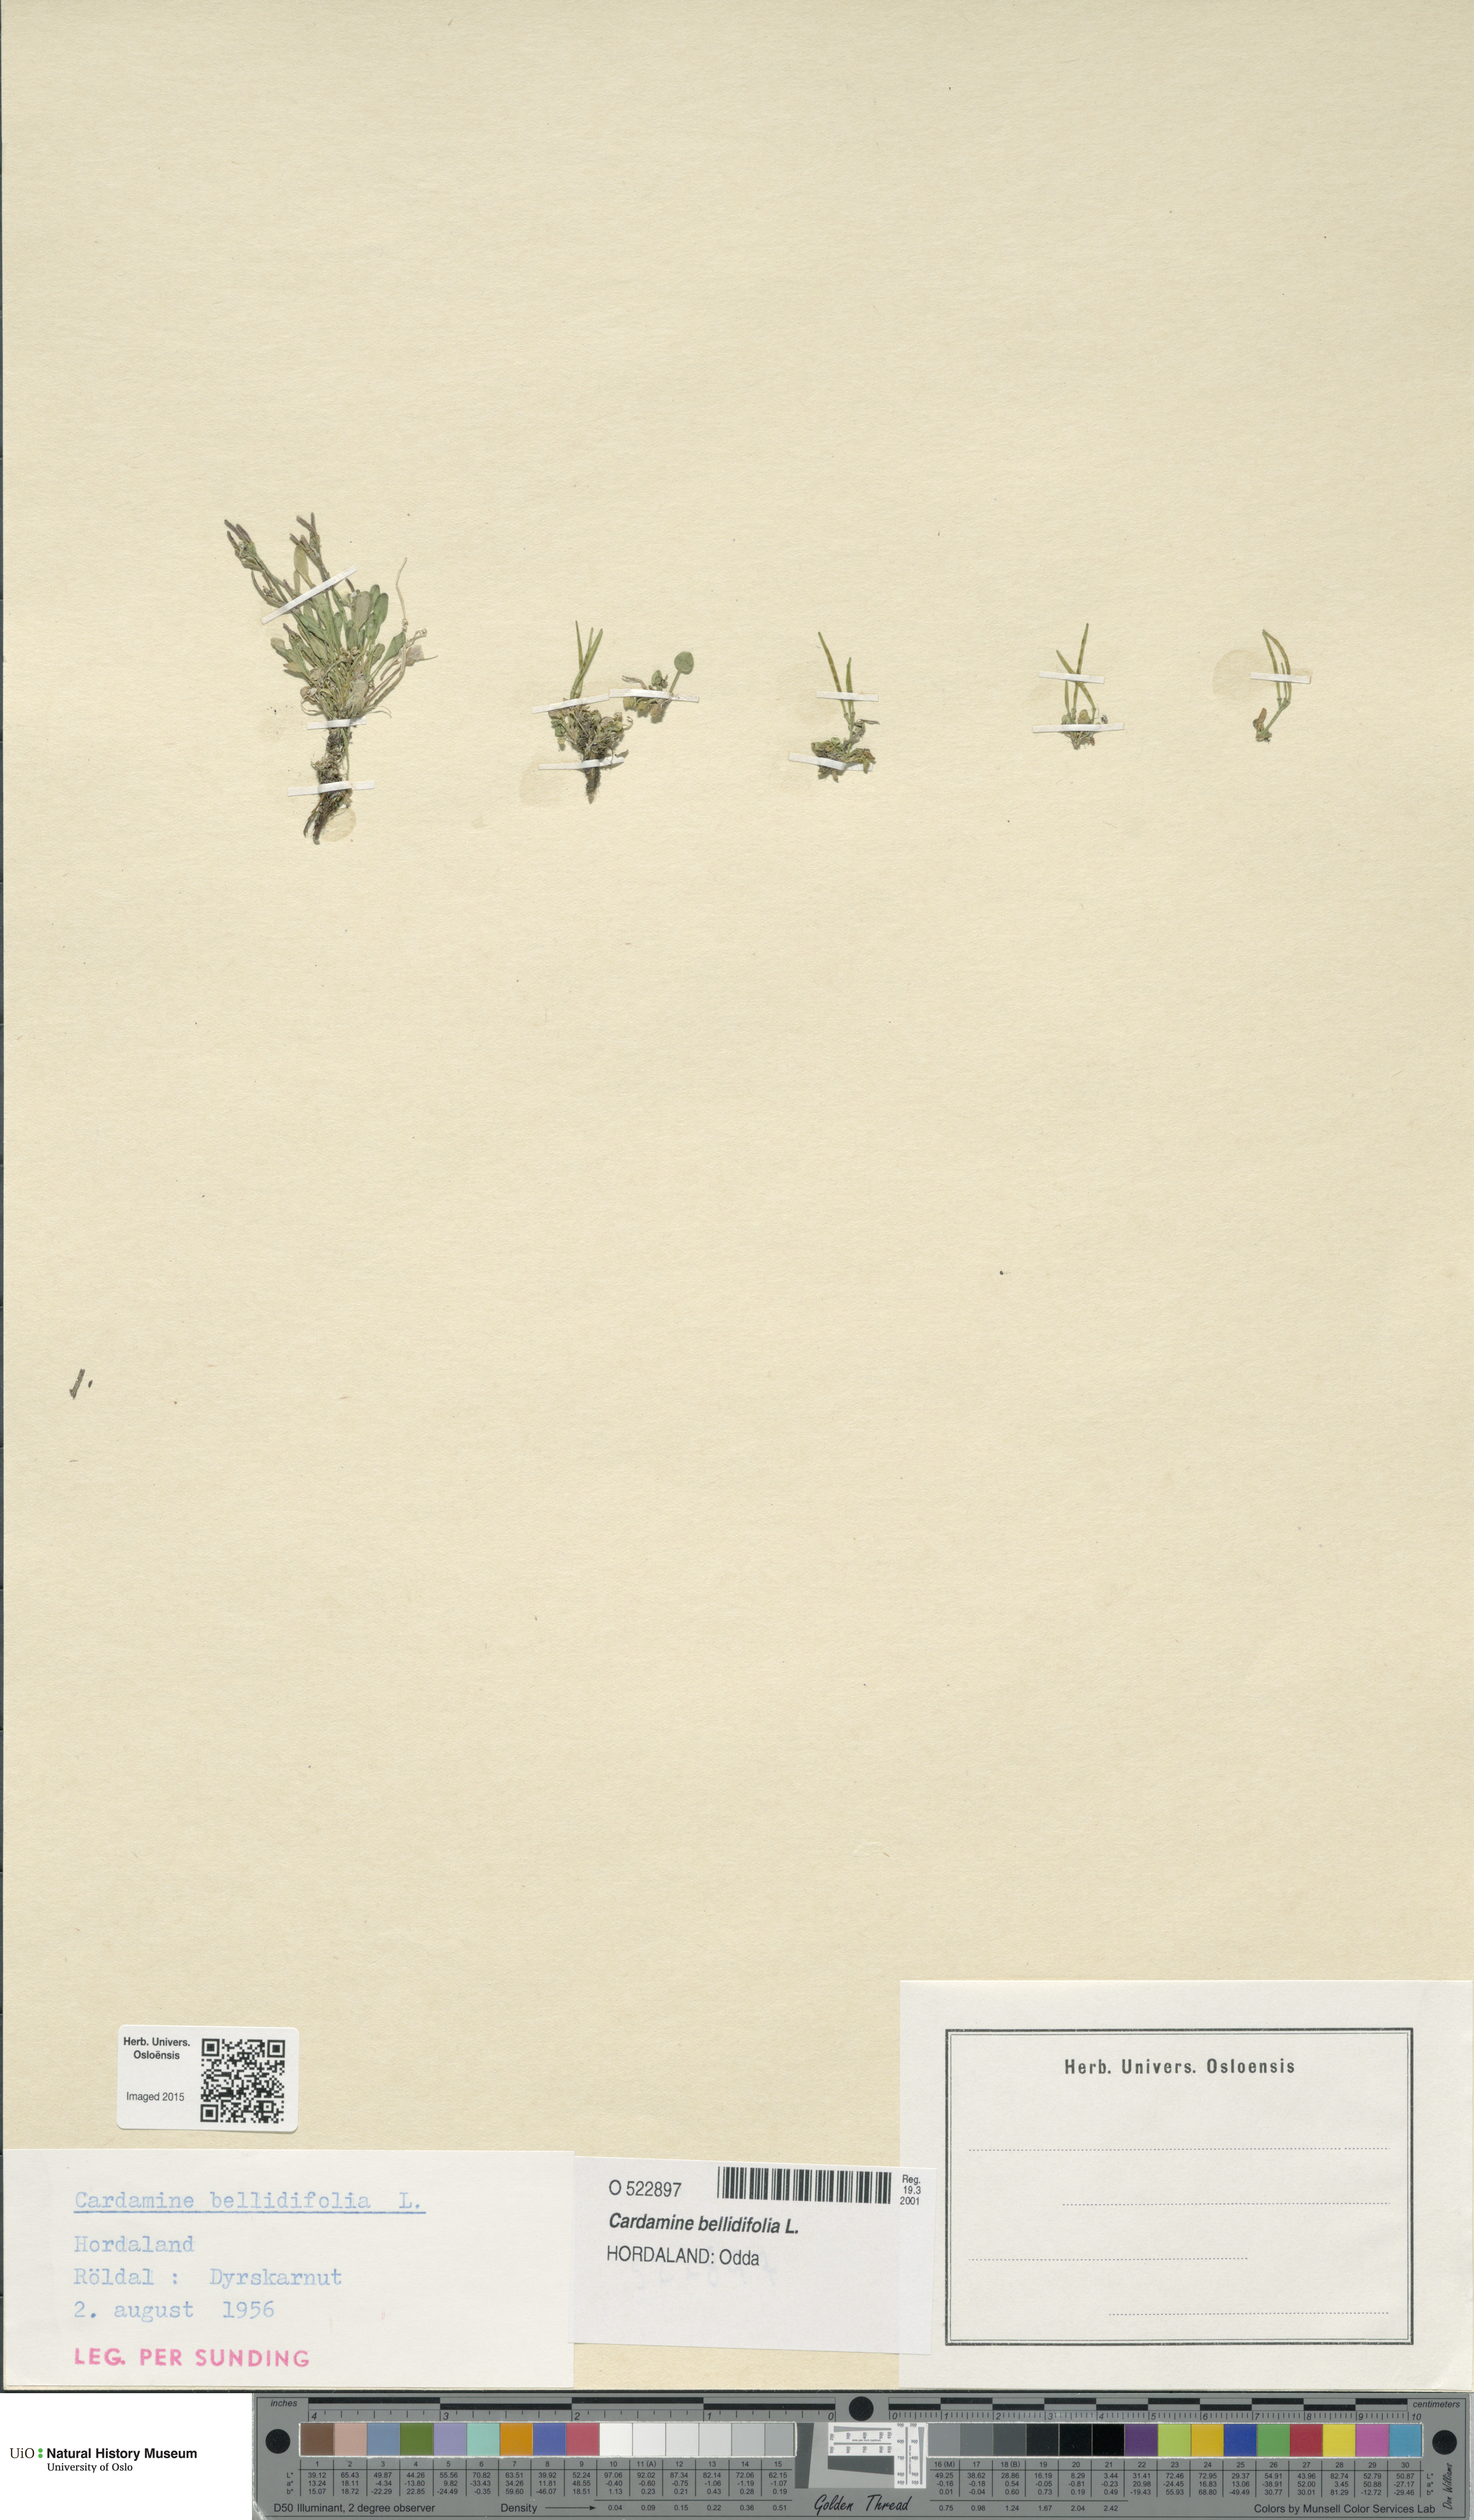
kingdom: Plantae
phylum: Tracheophyta
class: Magnoliopsida
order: Brassicales
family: Brassicaceae
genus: Cardamine
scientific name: Cardamine bellidifolia
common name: Alpine bittercress
